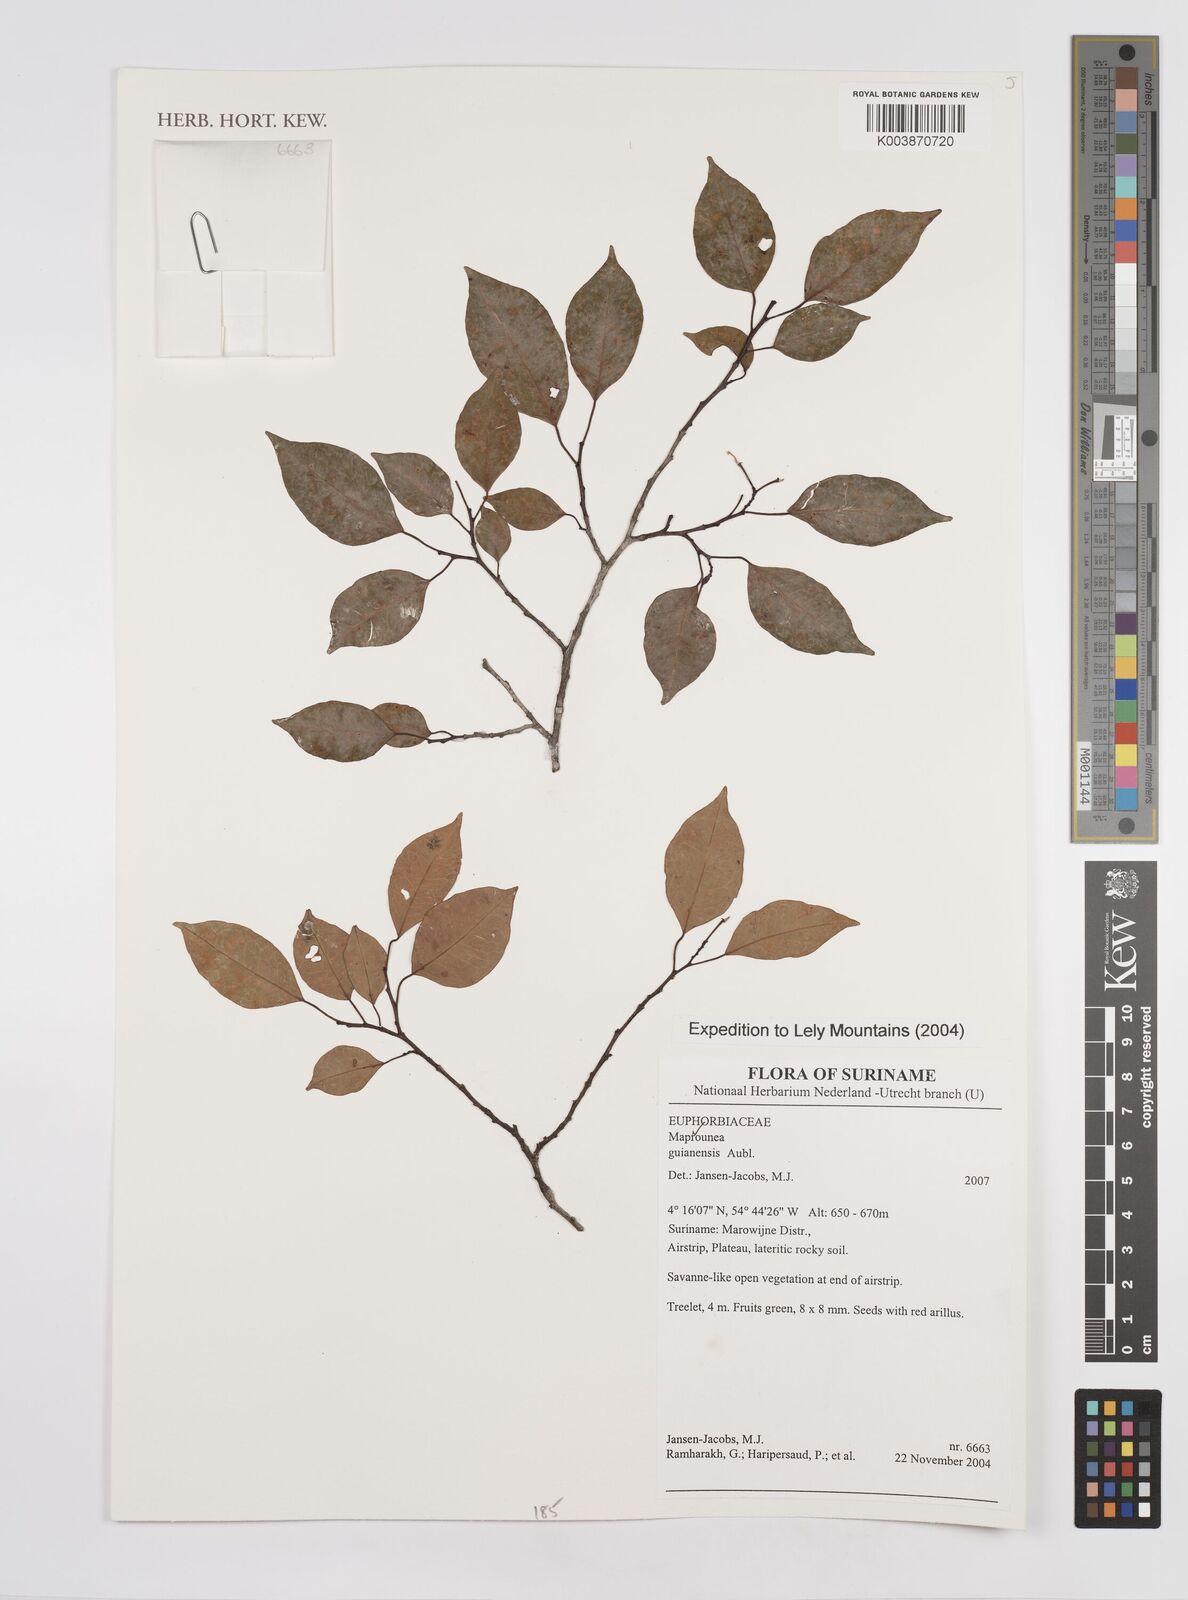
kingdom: Plantae
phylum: Tracheophyta
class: Magnoliopsida
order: Malpighiales
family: Euphorbiaceae
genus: Maprounea
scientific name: Maprounea guianensis
